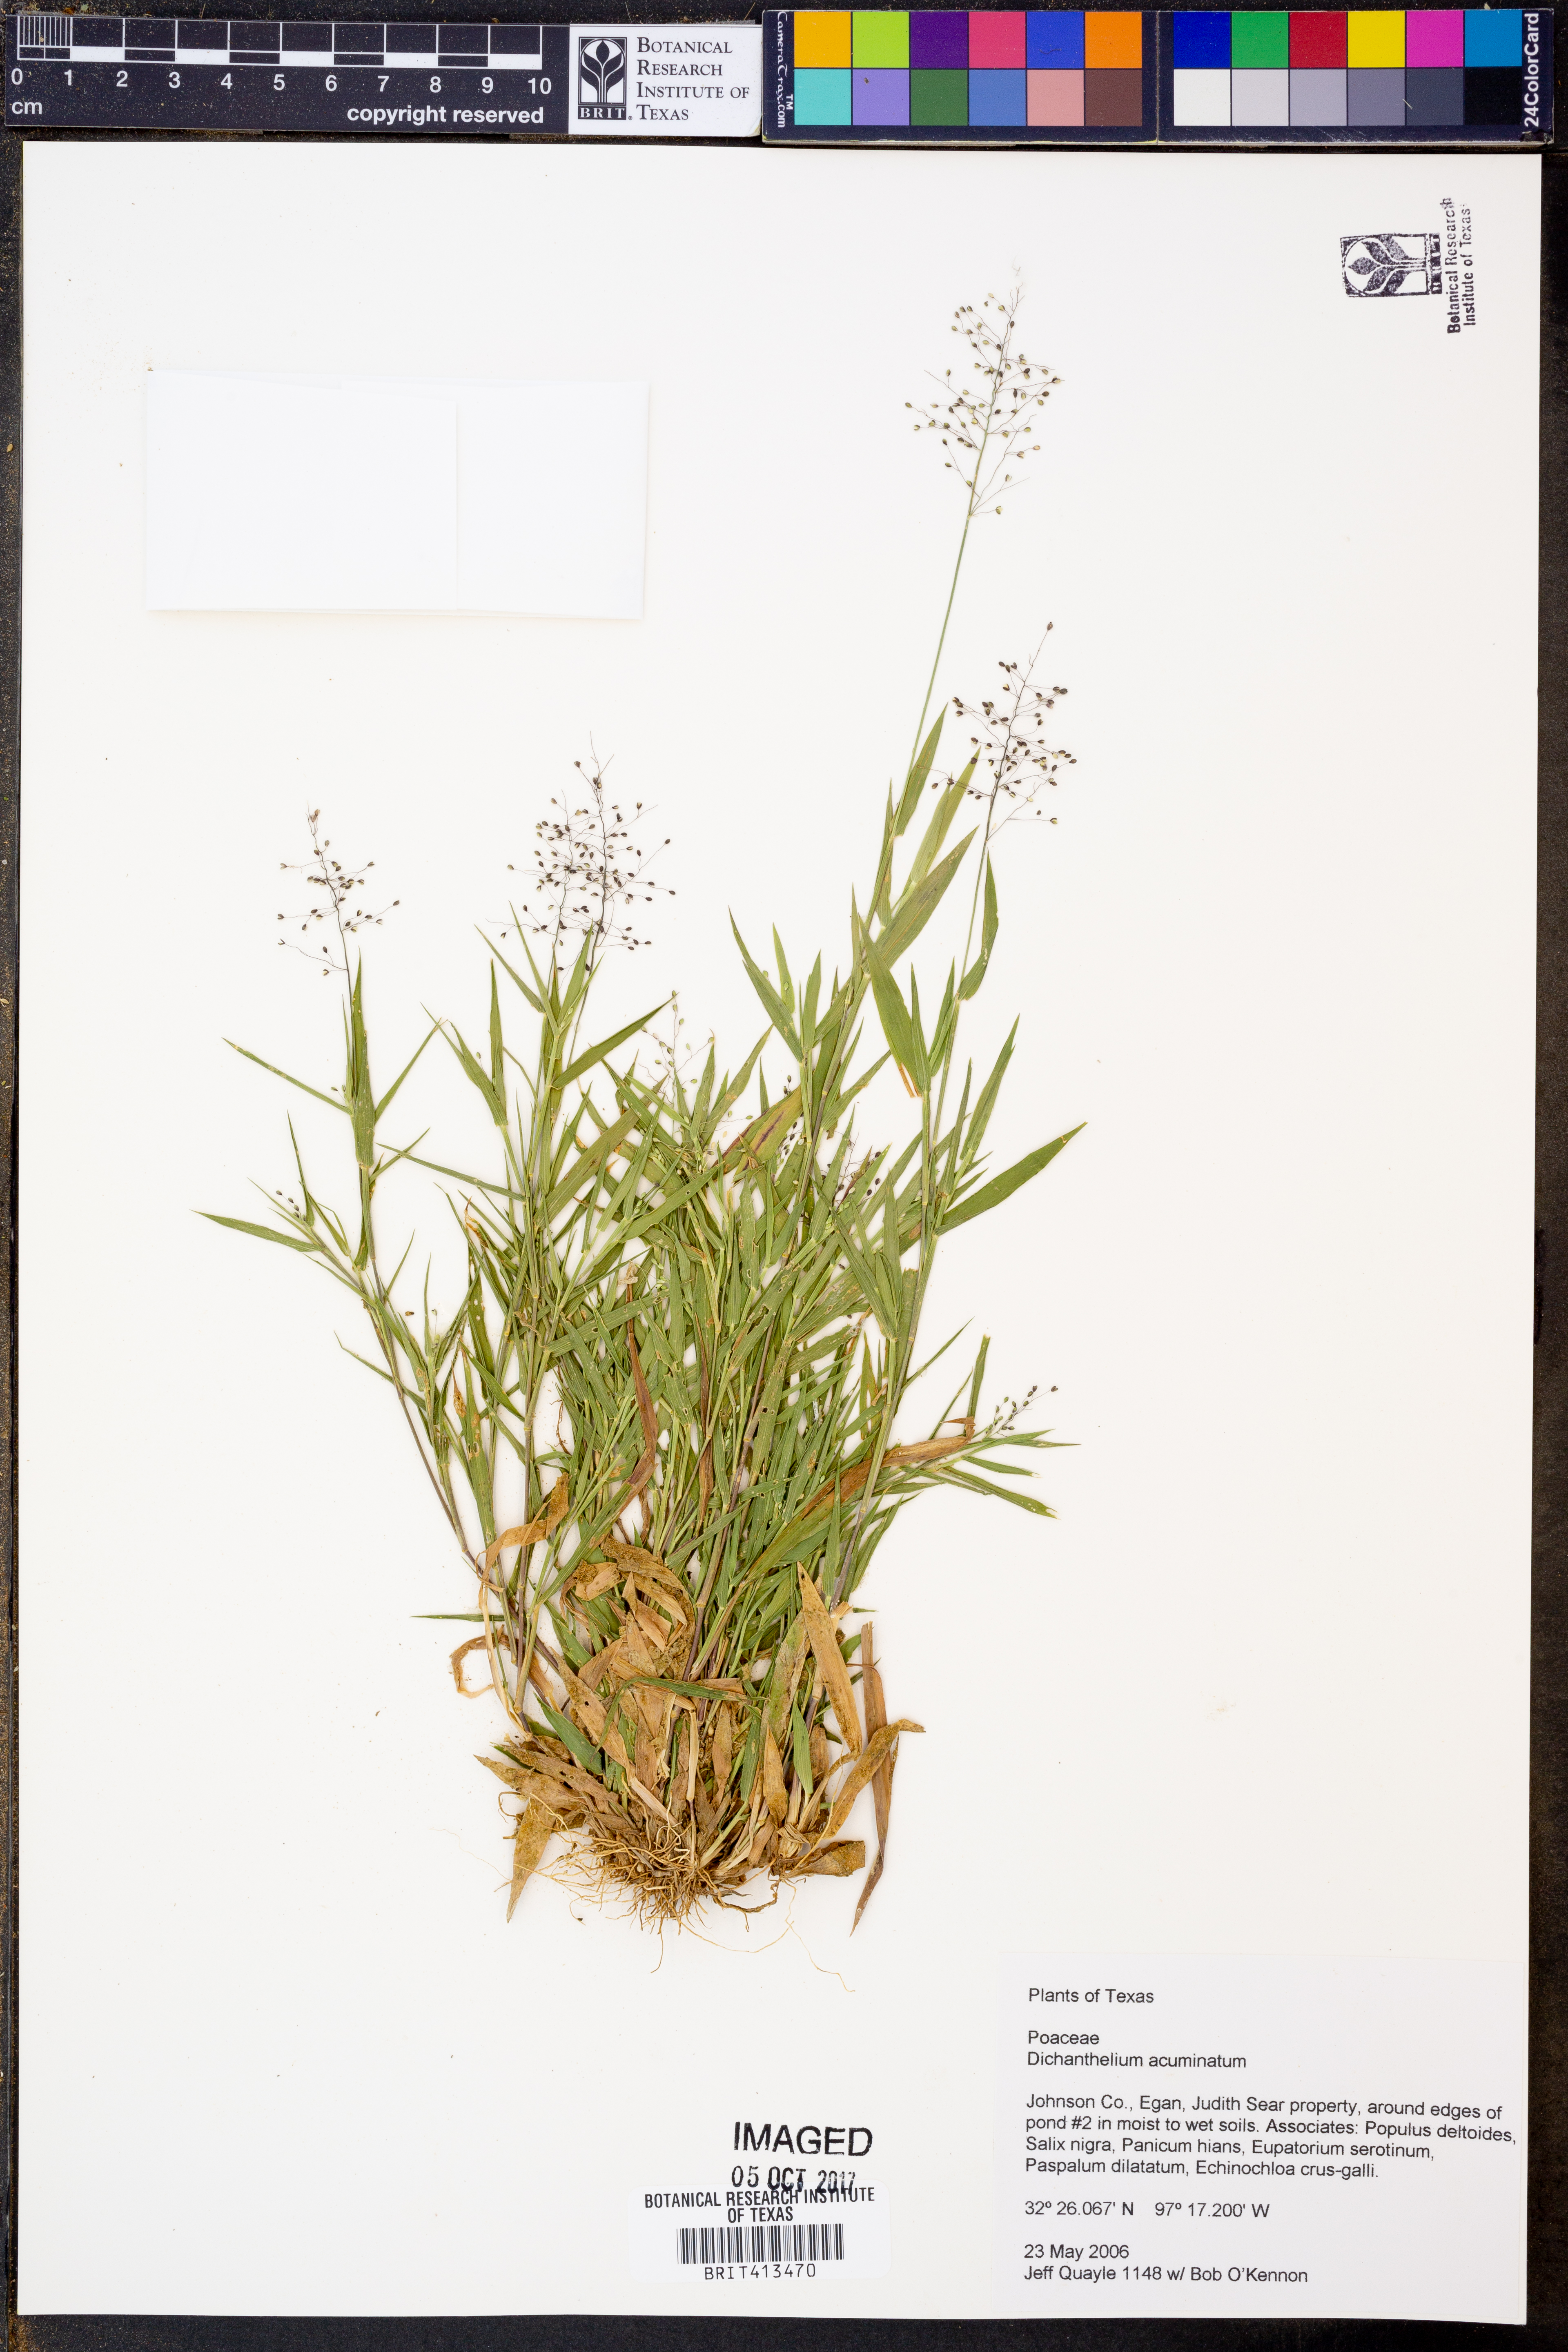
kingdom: Plantae
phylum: Tracheophyta
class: Liliopsida
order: Poales
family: Poaceae
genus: Dichanthelium
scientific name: Dichanthelium acuminatum
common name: Hairy panic grass
